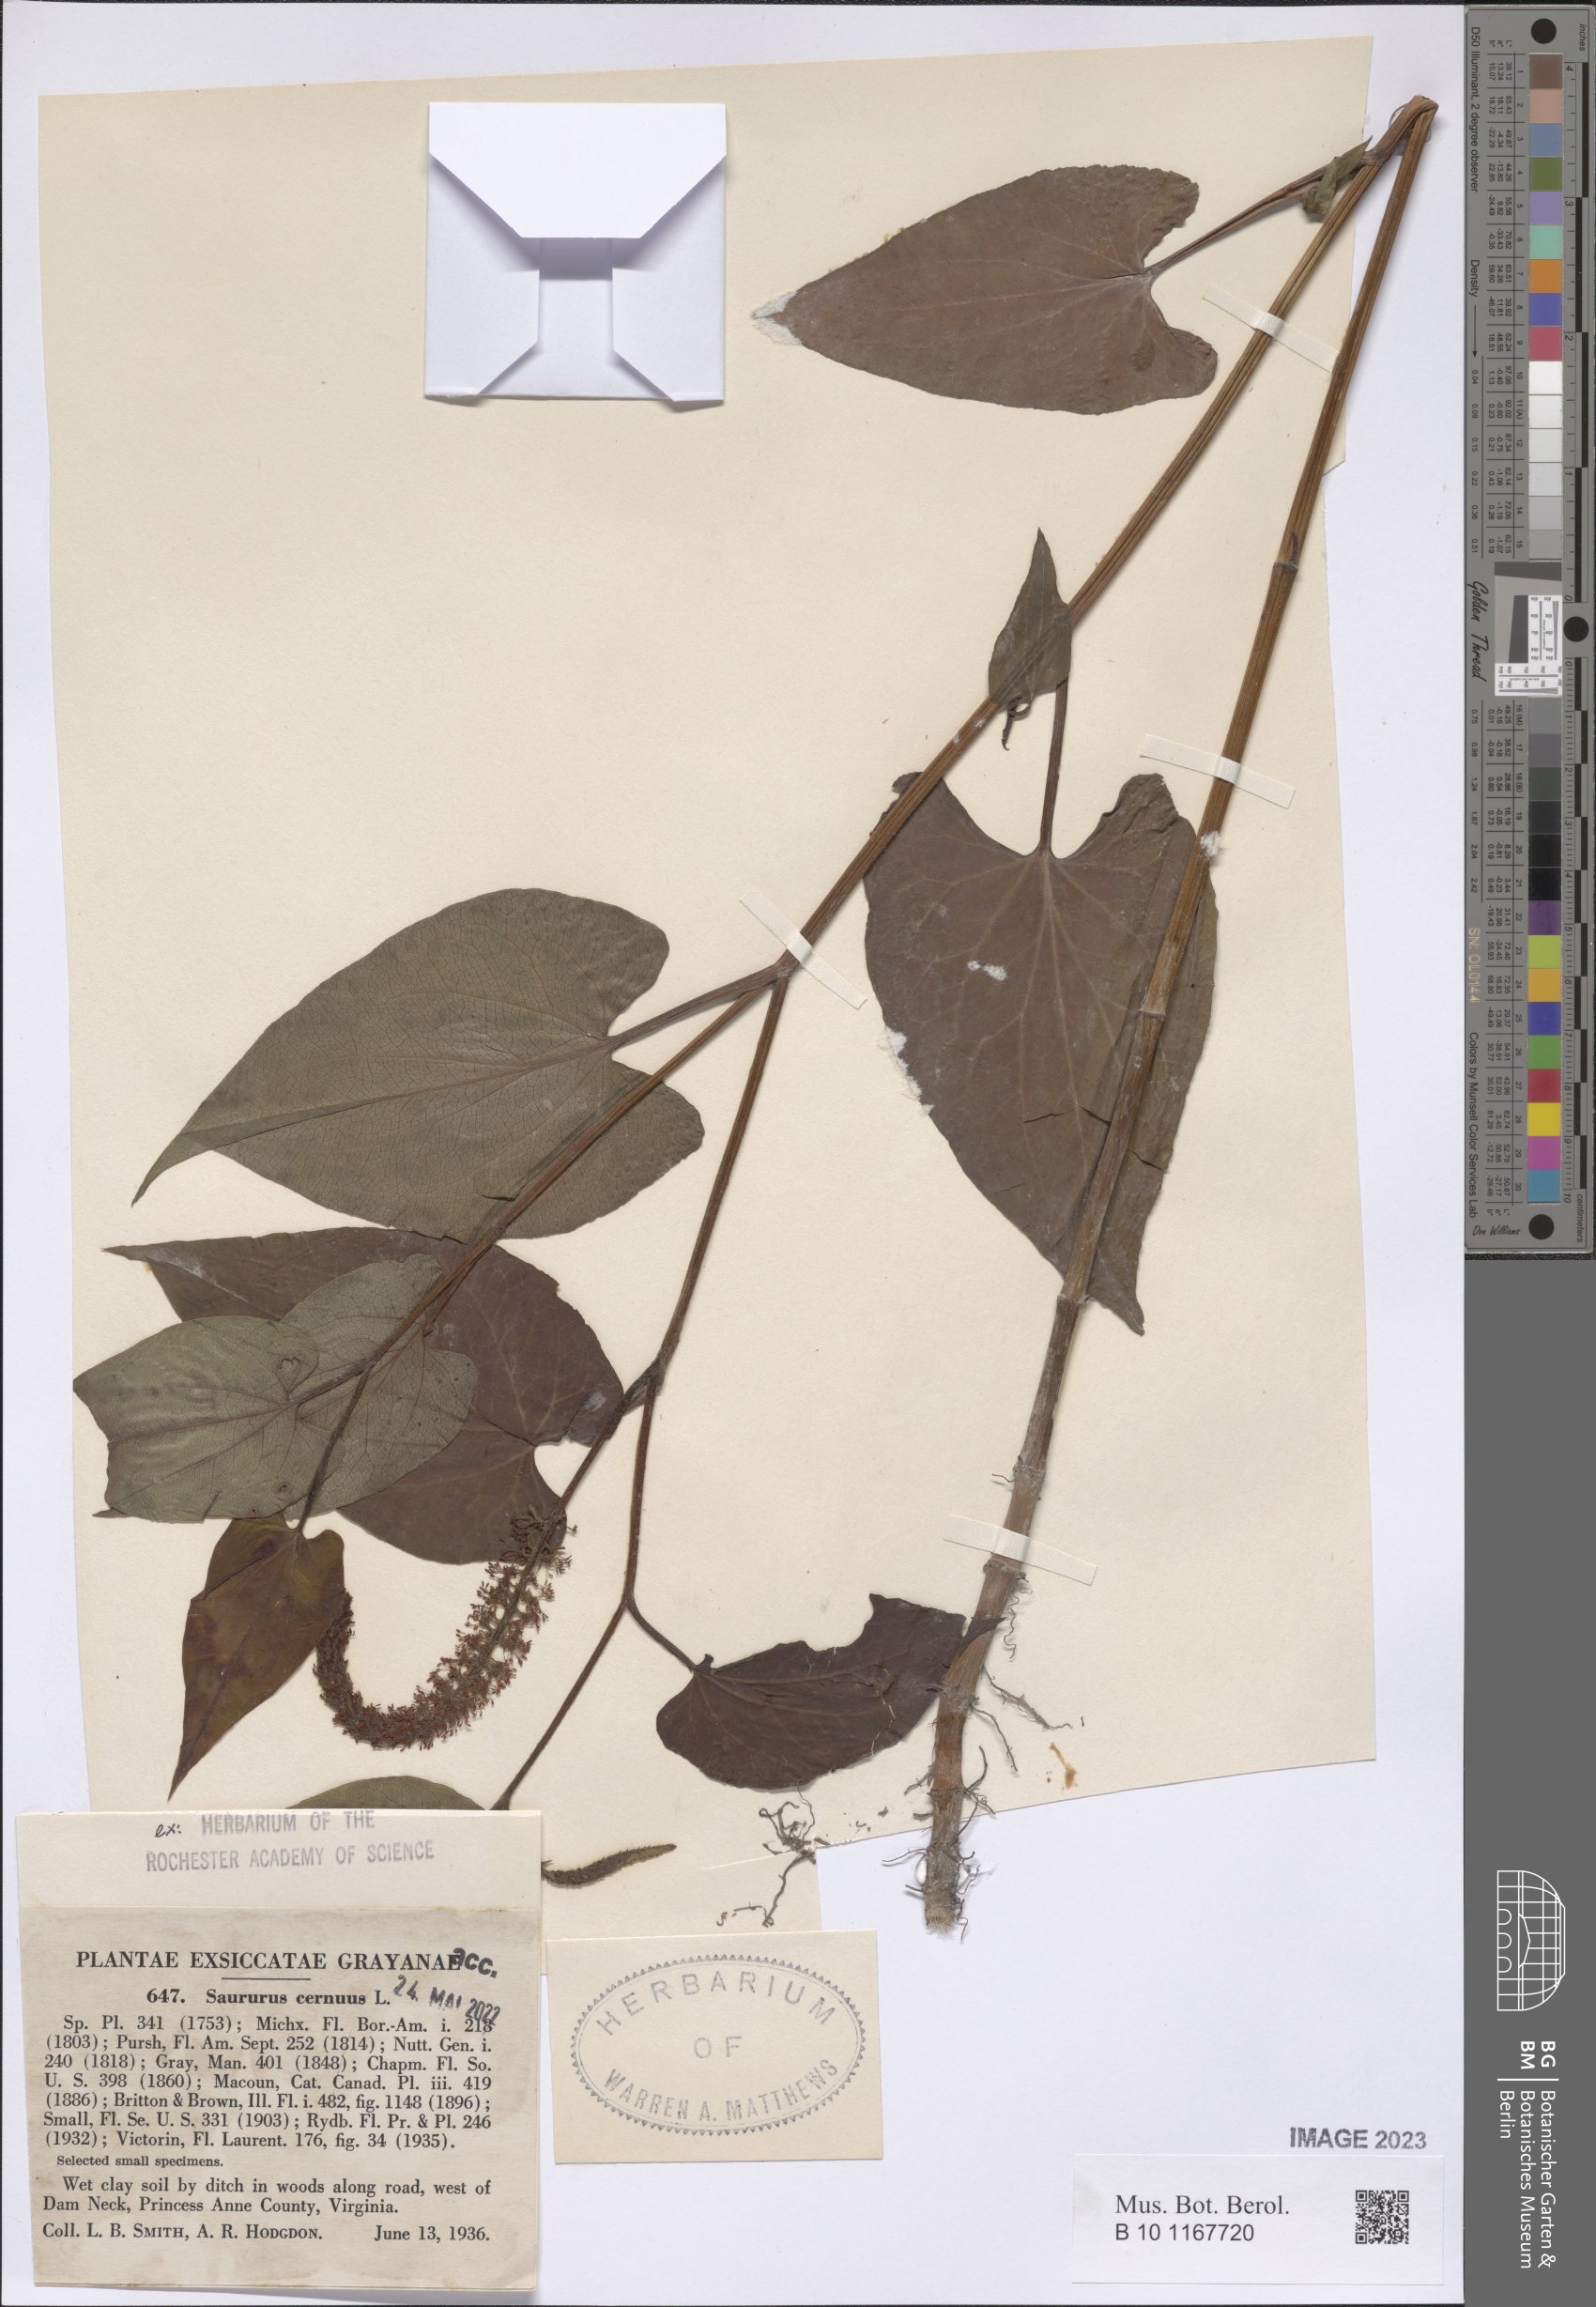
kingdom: Plantae
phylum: Tracheophyta
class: Magnoliopsida
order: Piperales
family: Saururaceae
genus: Saururus
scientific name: Saururus cernuus
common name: Lizard's-tail
